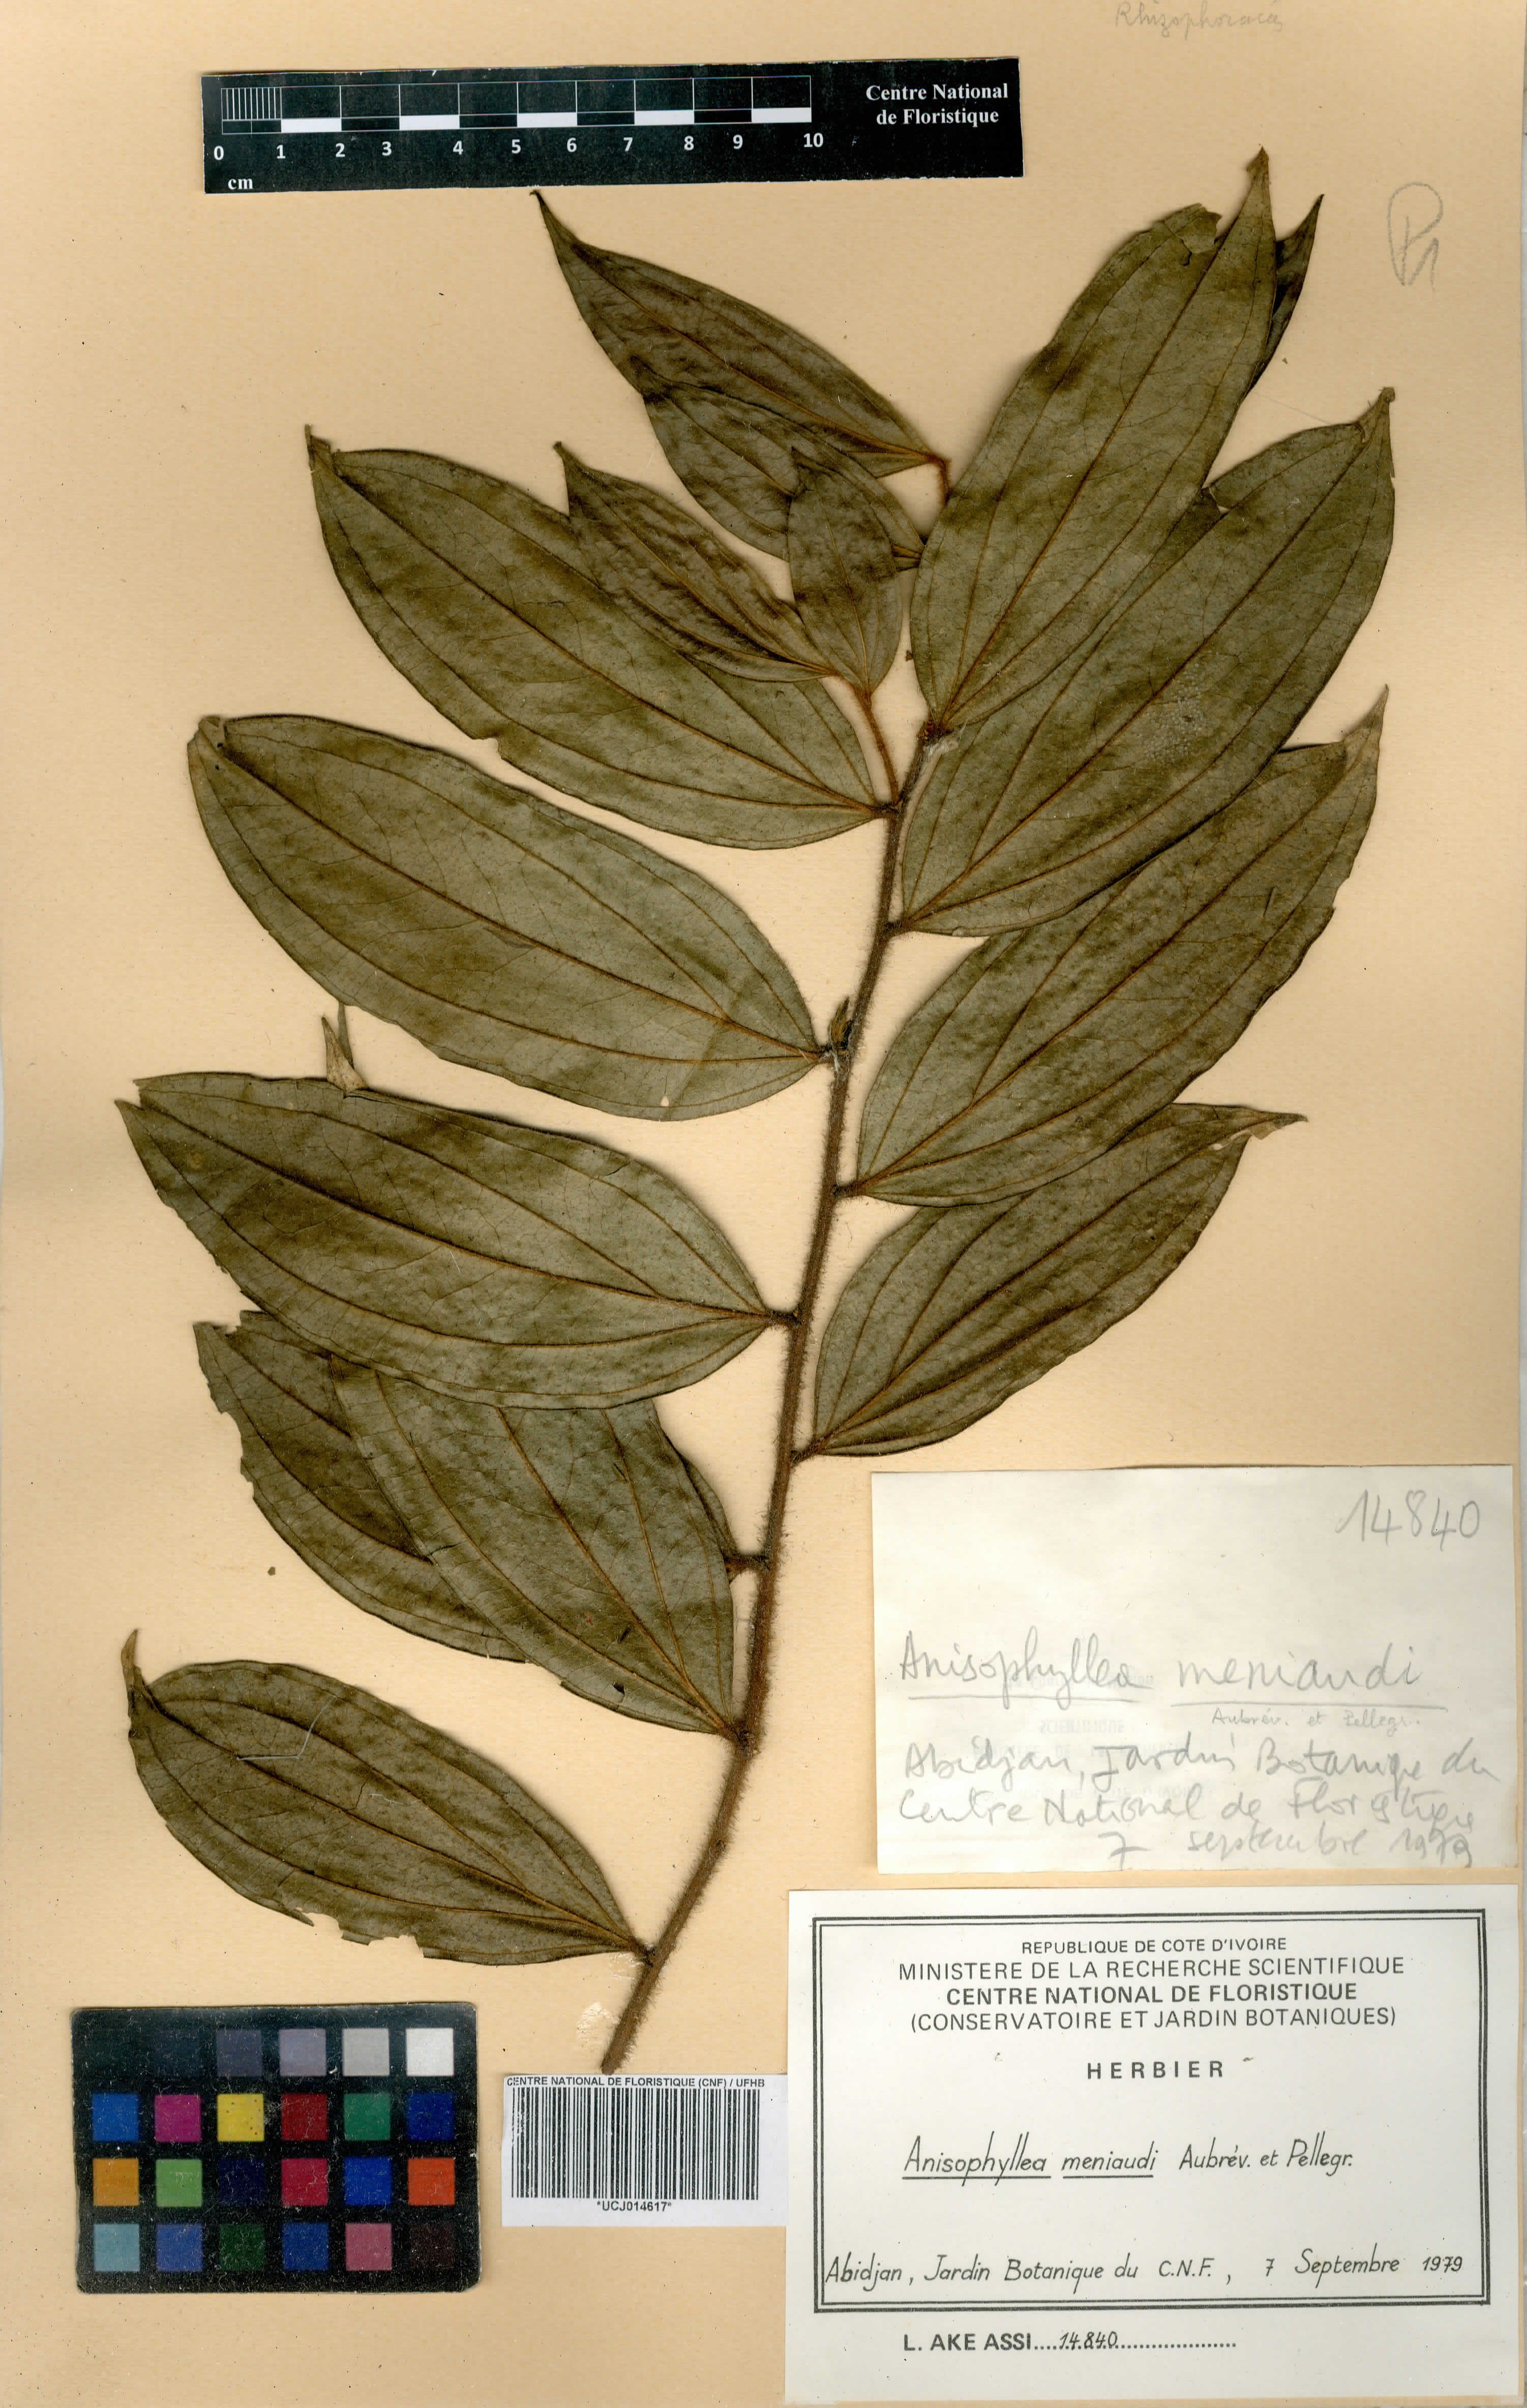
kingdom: Plantae
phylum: Tracheophyta
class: Magnoliopsida
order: Cucurbitales
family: Anisophylleaceae
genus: Anisophyllea
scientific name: Anisophyllea meniaudii
